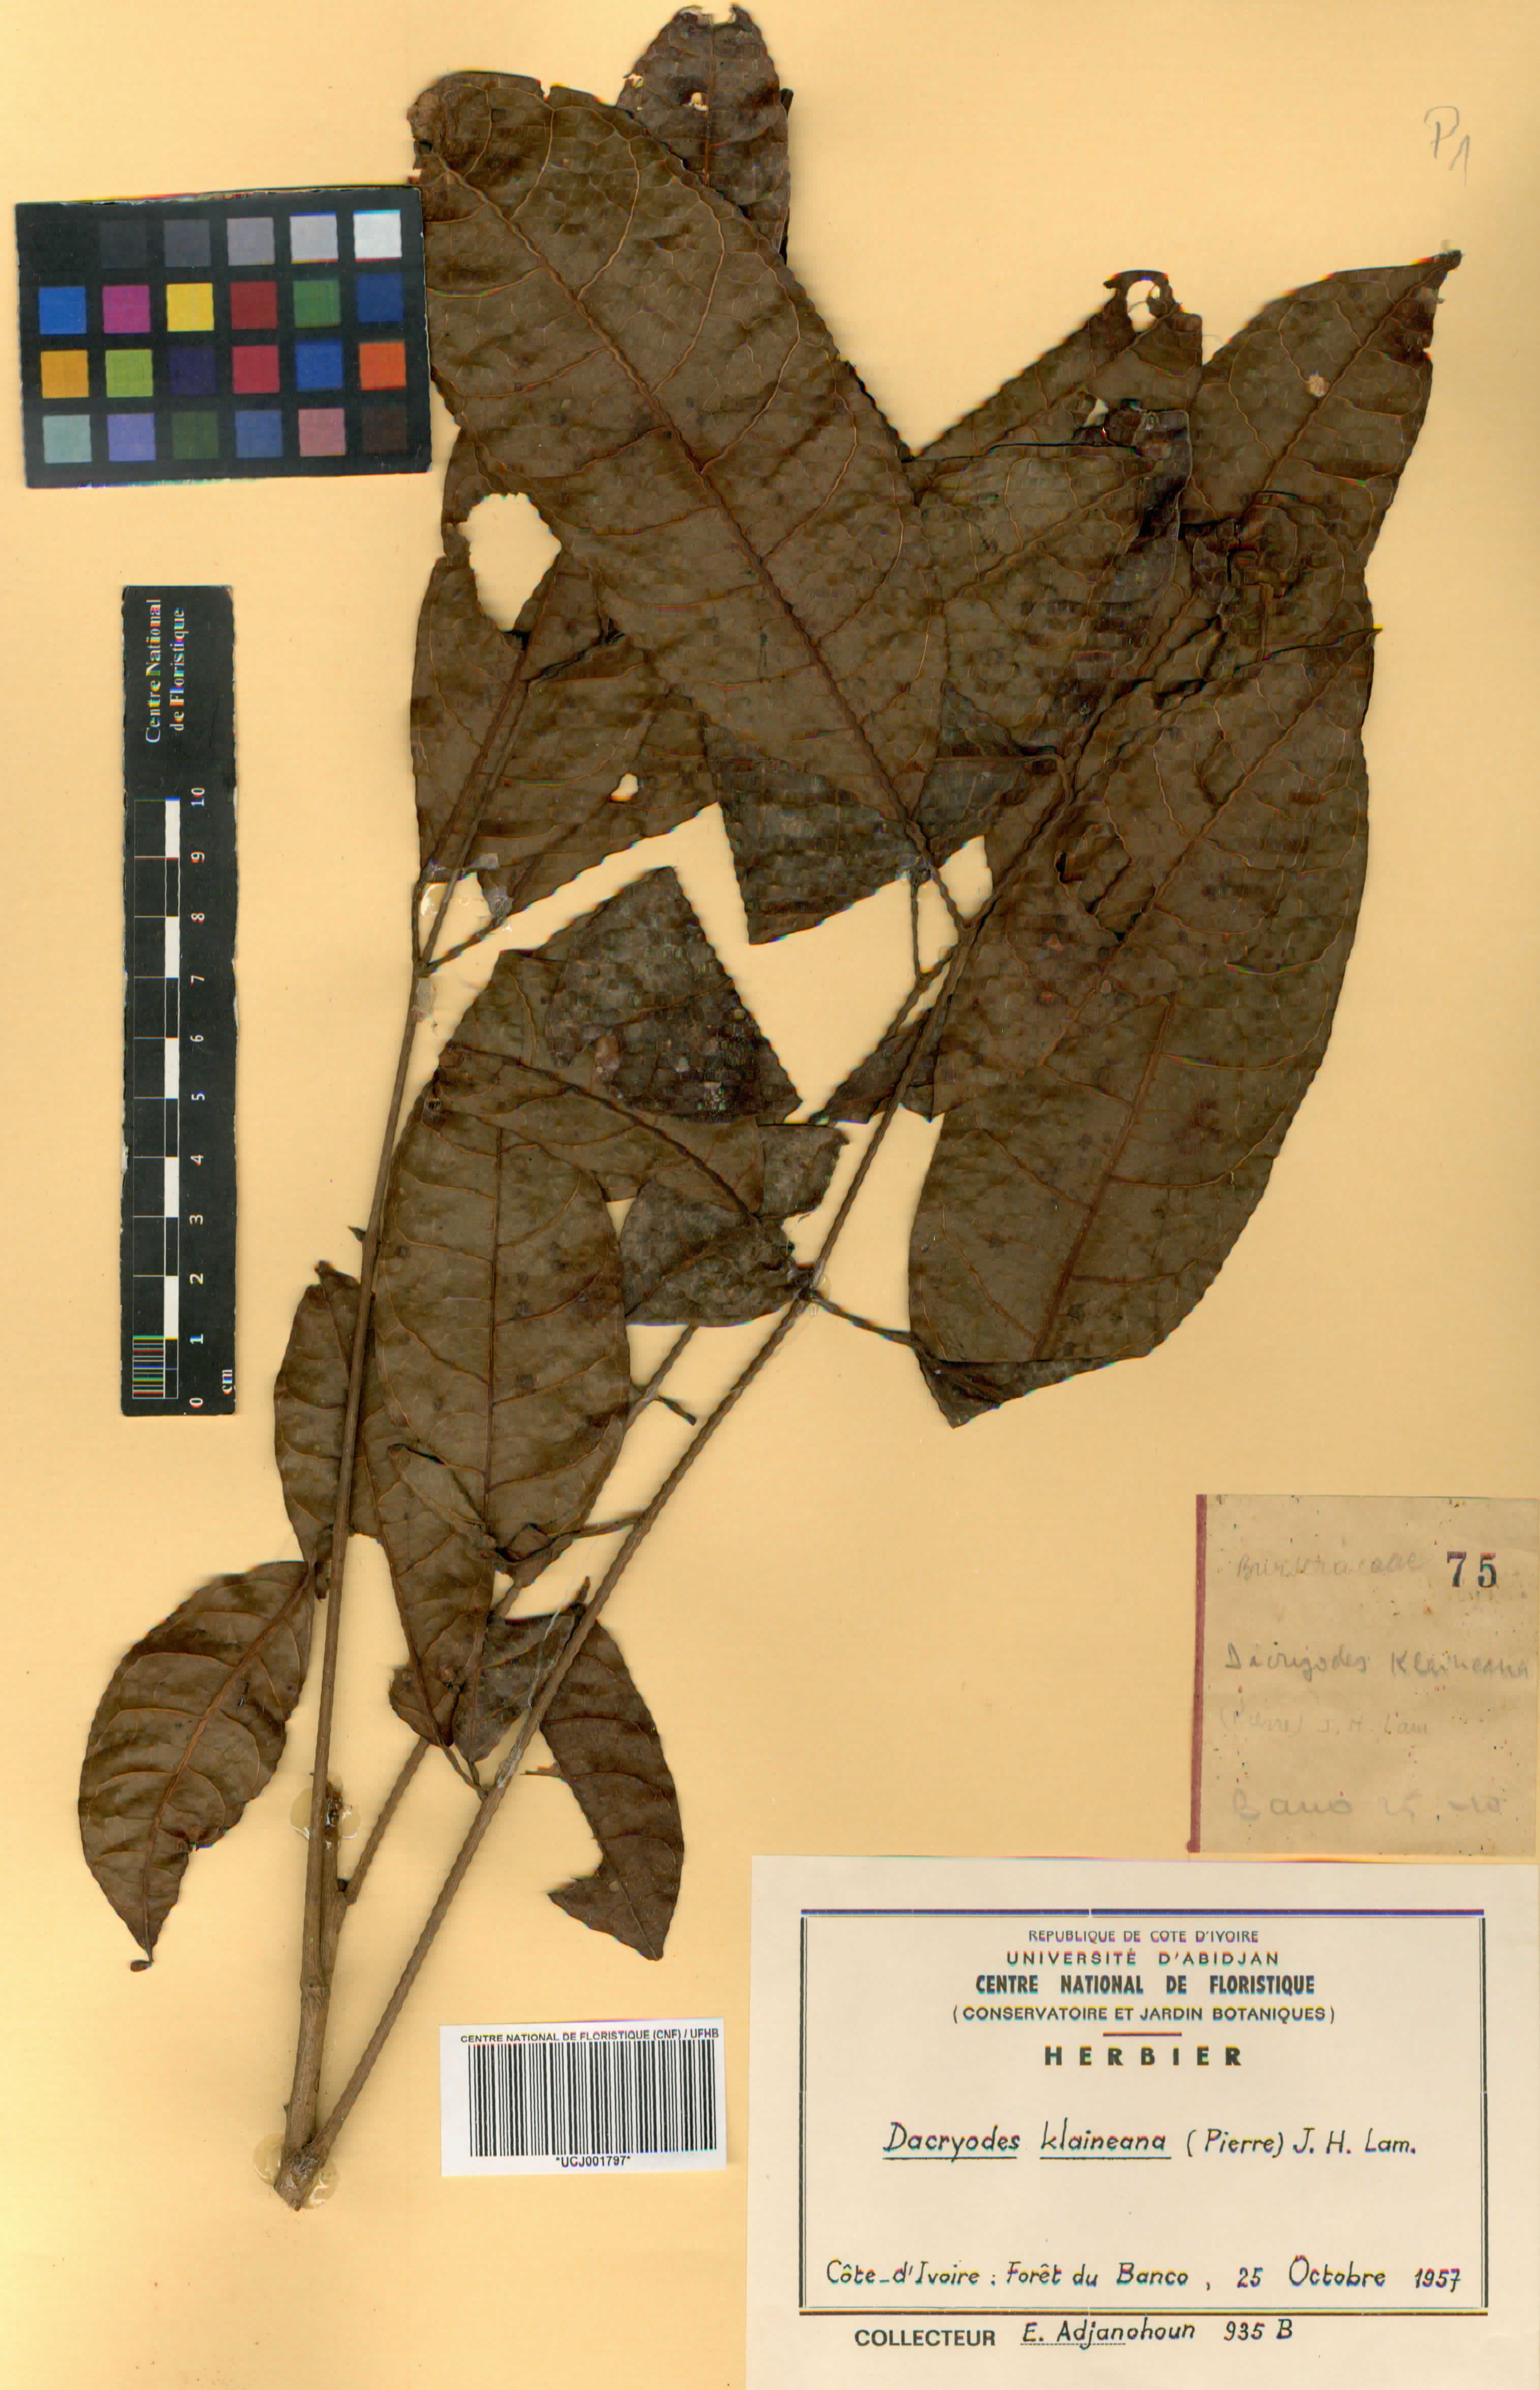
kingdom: Plantae
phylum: Tracheophyta
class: Magnoliopsida
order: Sapindales
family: Burseraceae
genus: Pachylobus
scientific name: Pachylobus klaineana
